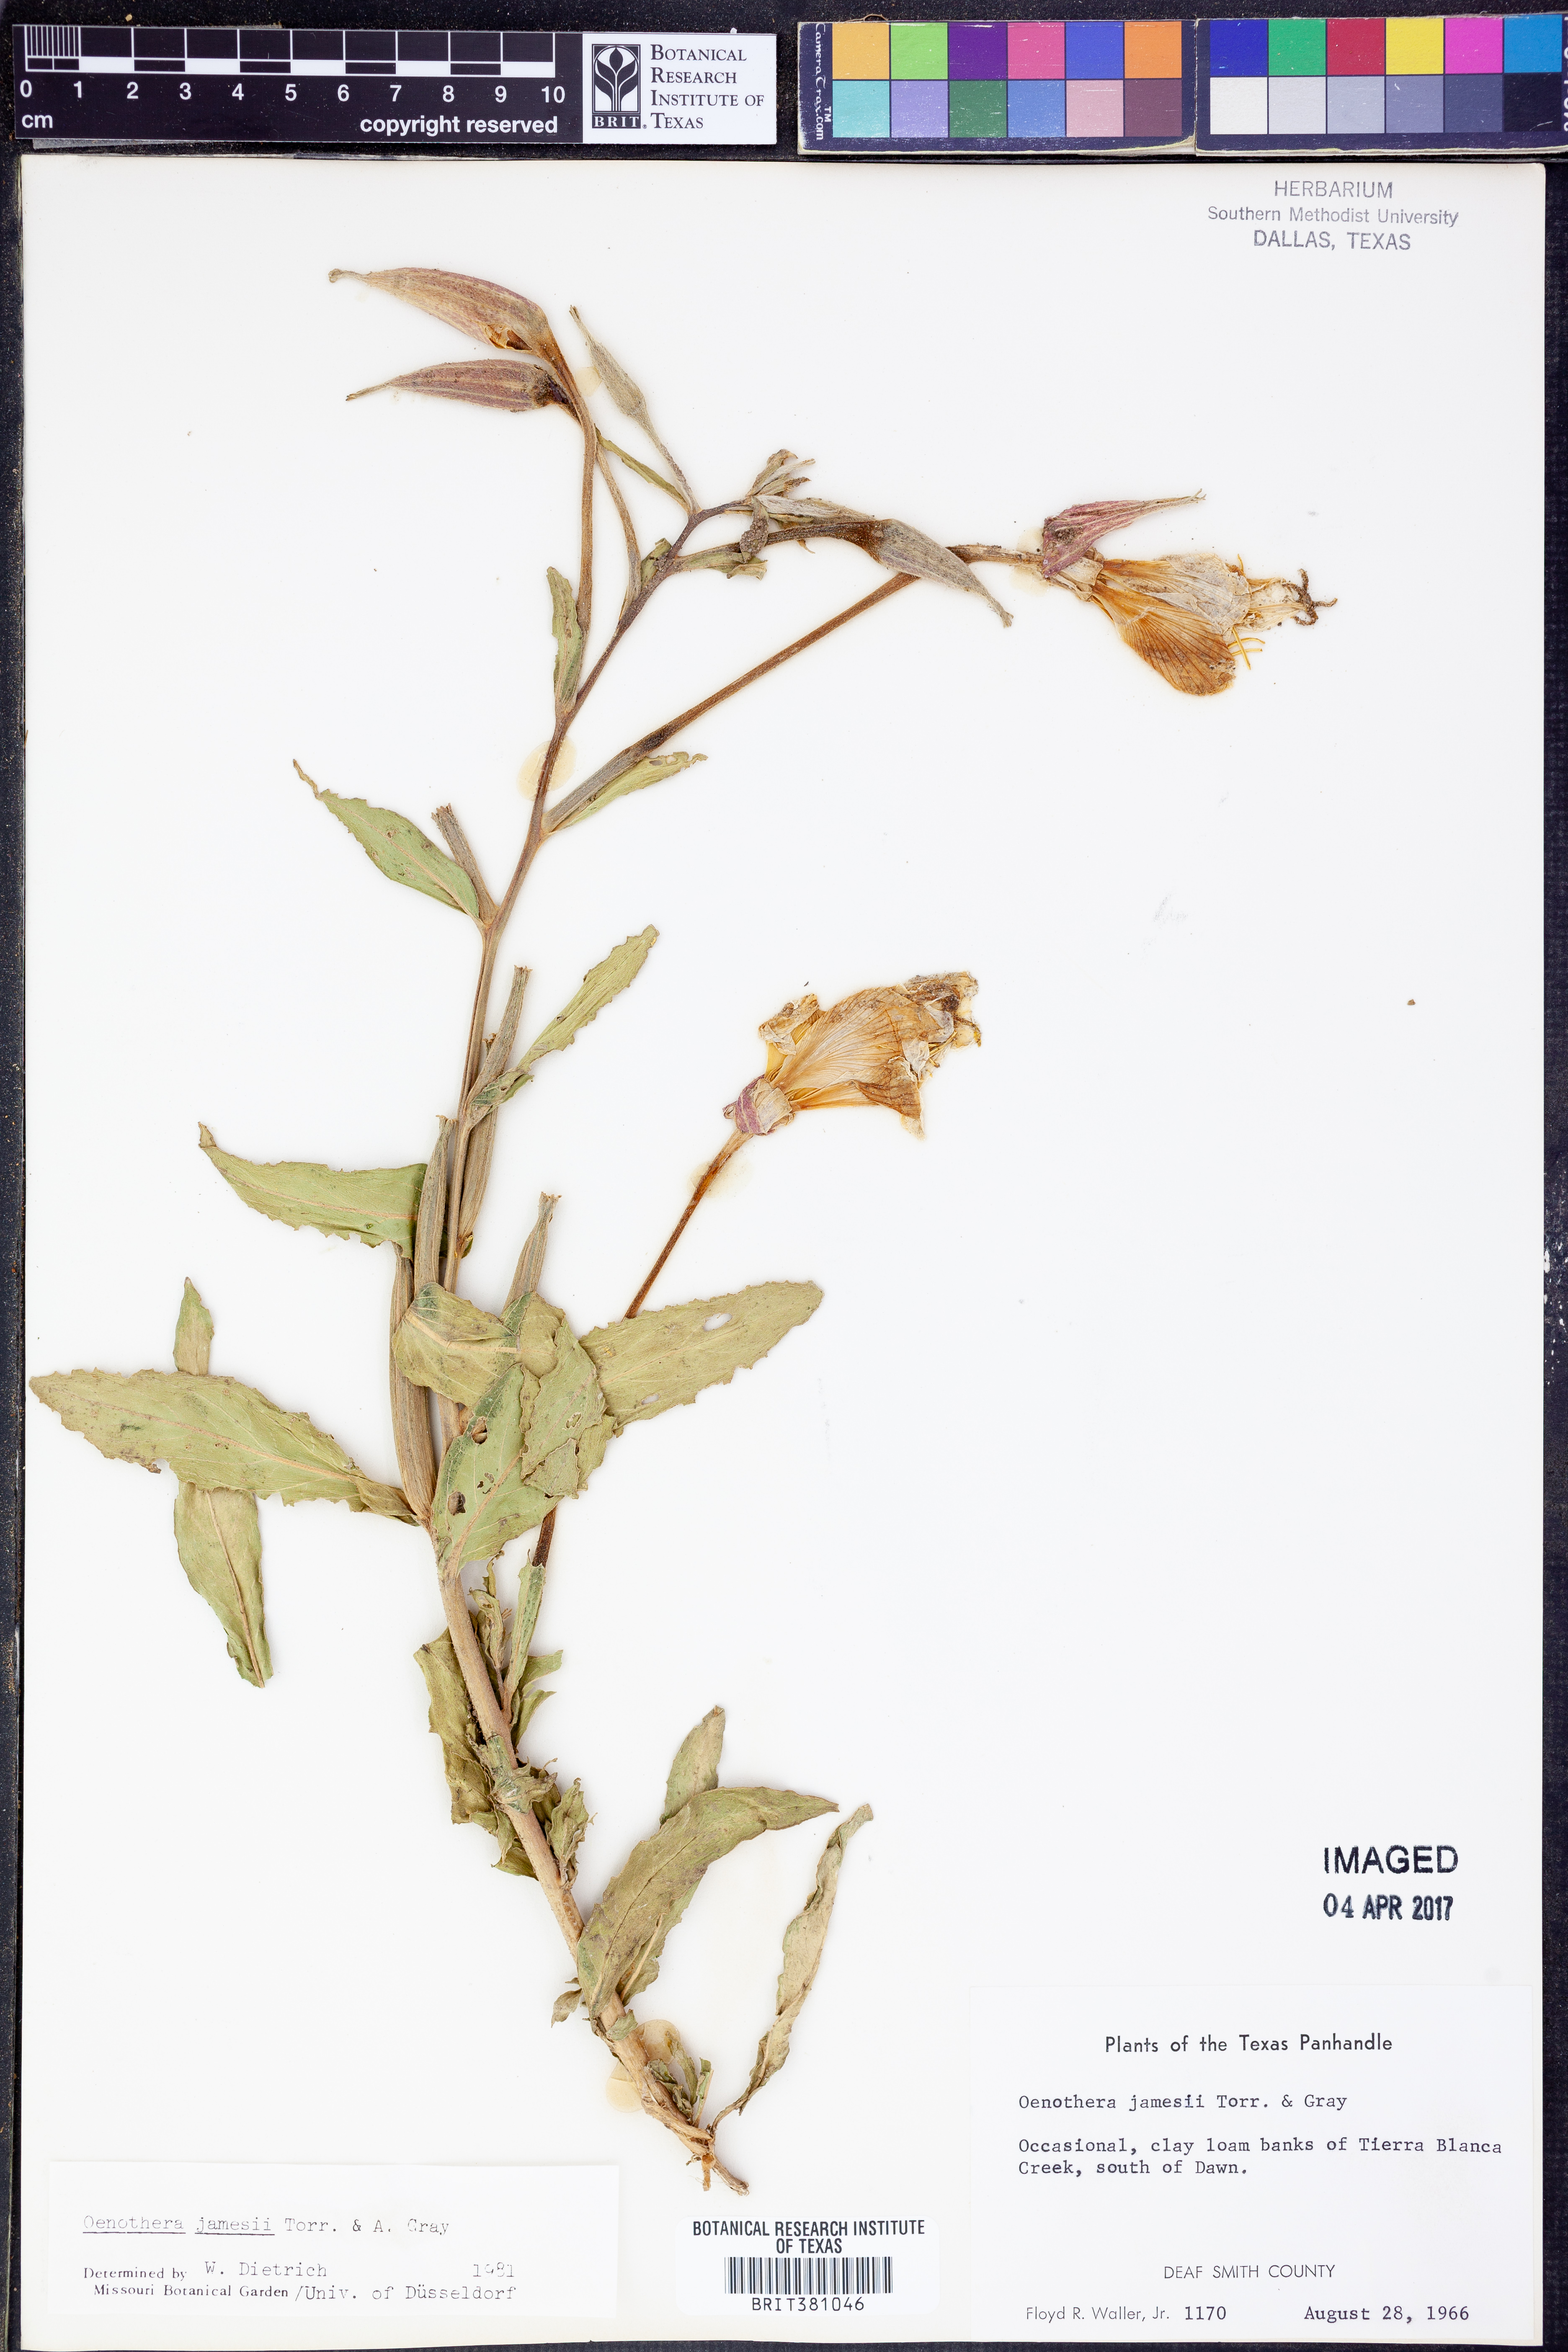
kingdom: Plantae
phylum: Tracheophyta
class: Magnoliopsida
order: Myrtales
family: Onagraceae
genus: Oenothera
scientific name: Oenothera jamesii
